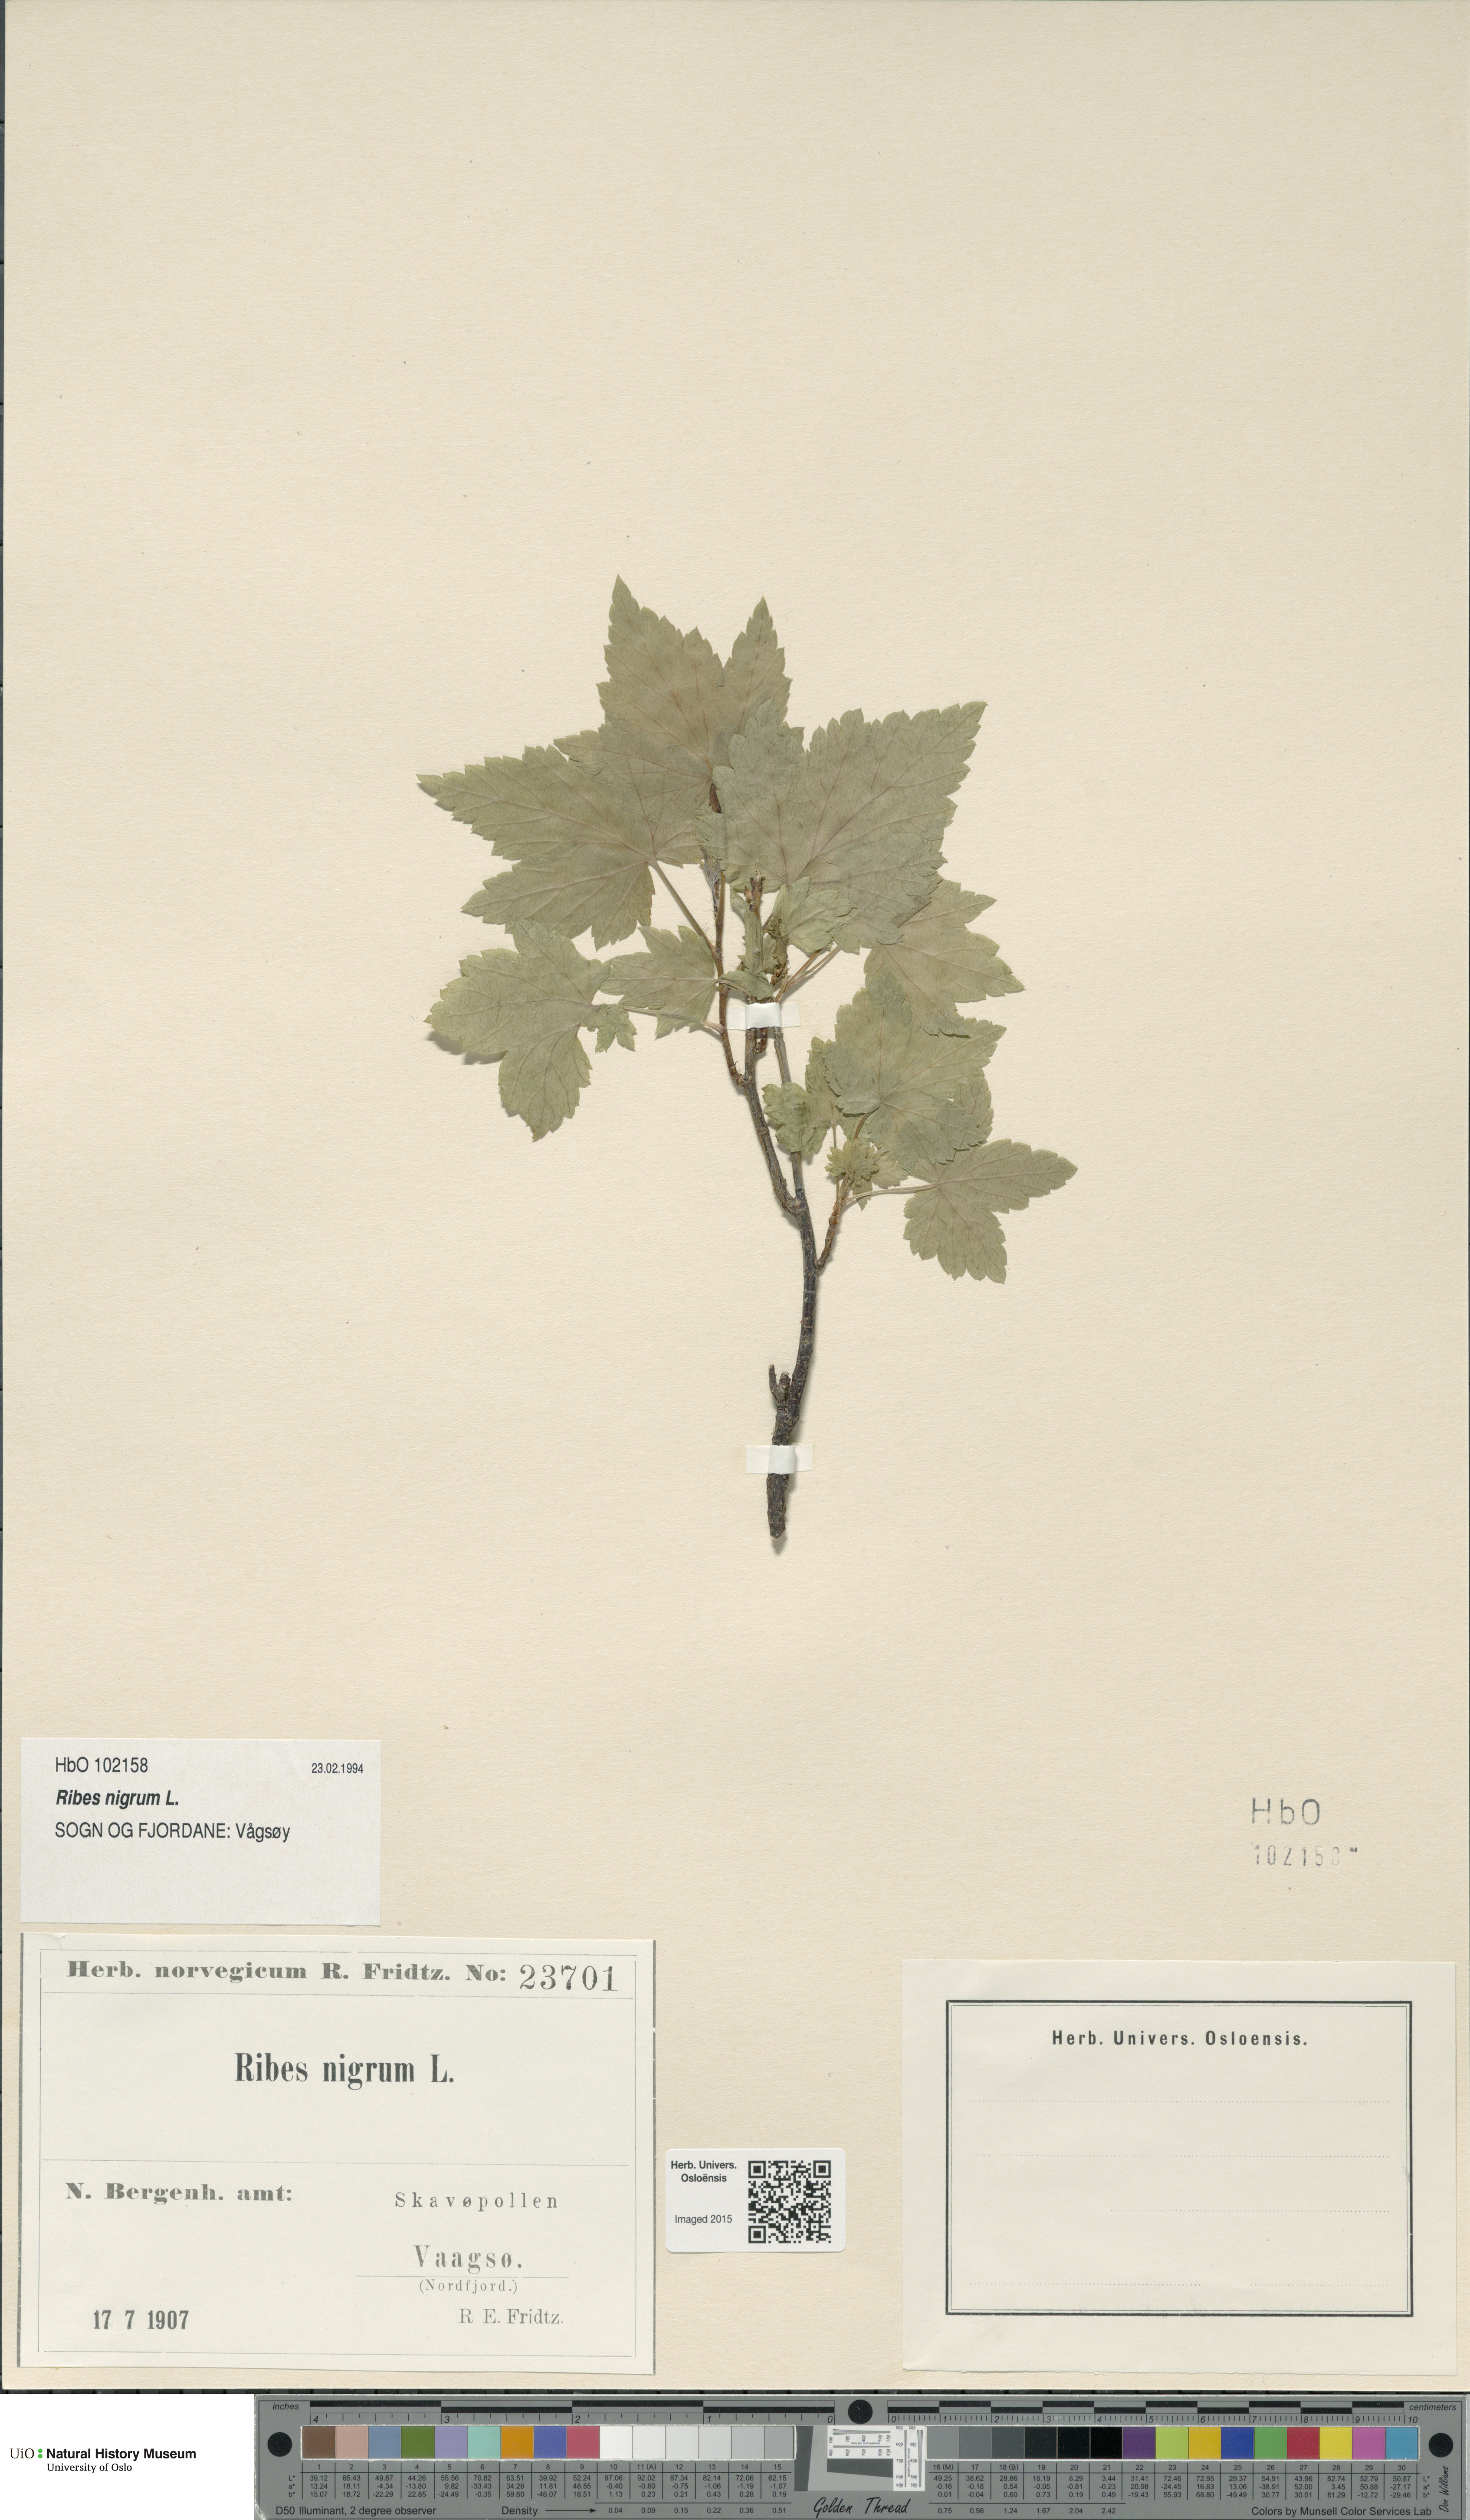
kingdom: Plantae
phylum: Tracheophyta
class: Magnoliopsida
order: Saxifragales
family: Grossulariaceae
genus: Ribes
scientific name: Ribes nigrum
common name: Black currant
